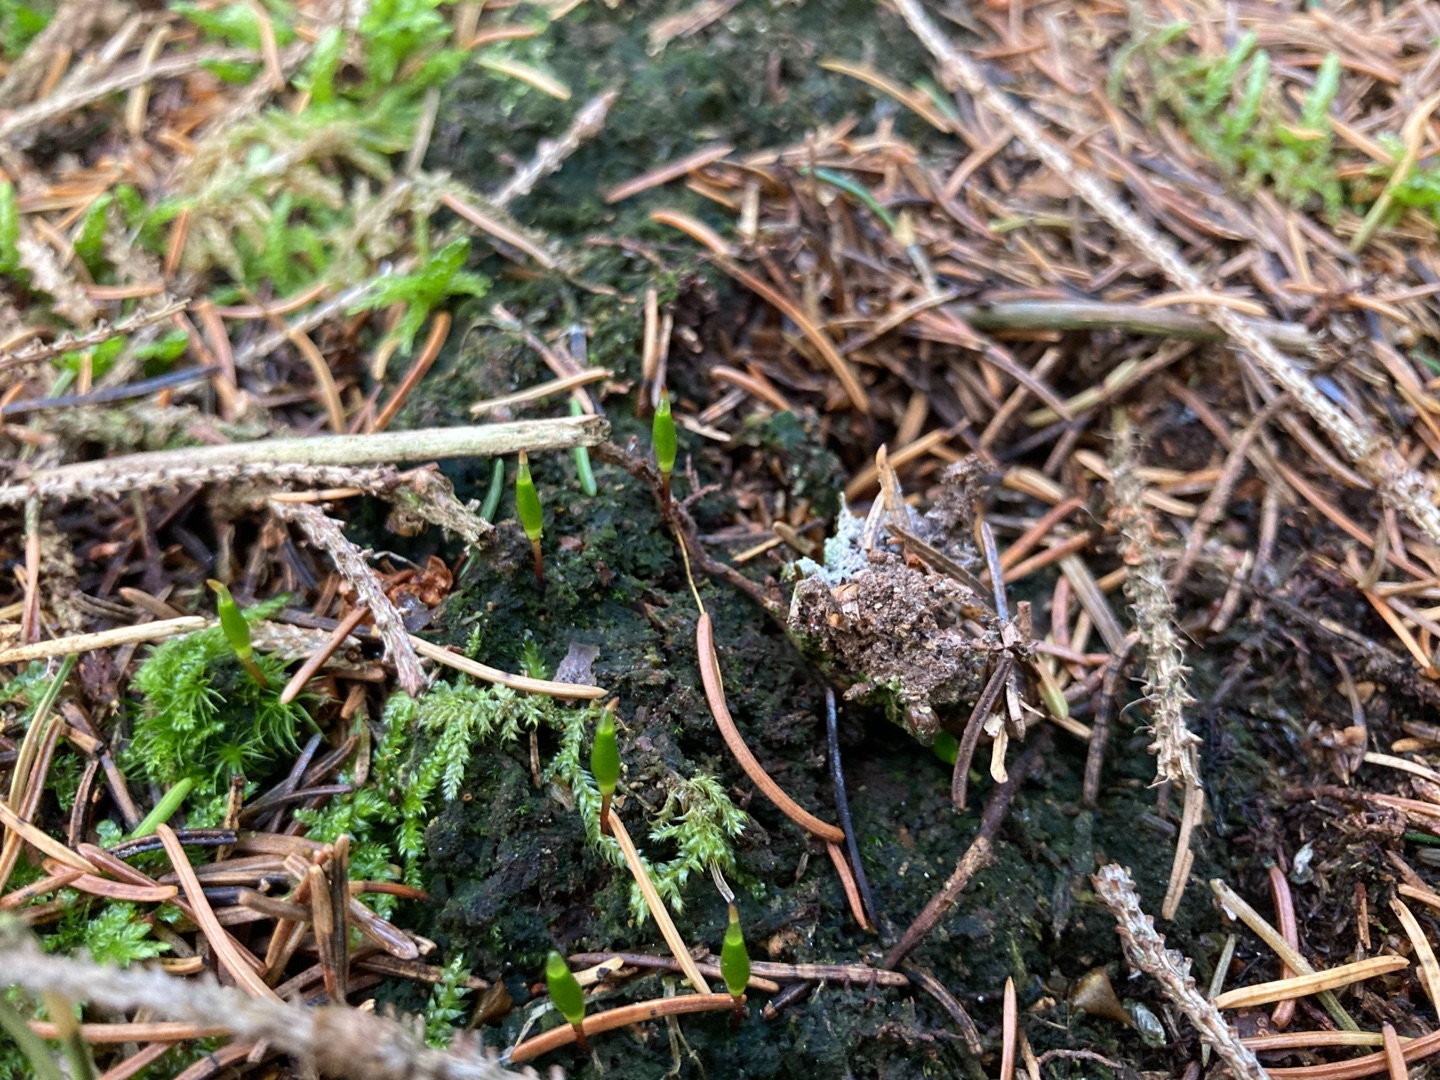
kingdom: Plantae
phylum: Bryophyta
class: Bryopsida
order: Buxbaumiales
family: Buxbaumiaceae
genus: Buxbaumia
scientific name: Buxbaumia viridis
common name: Grøn buxbaumia
